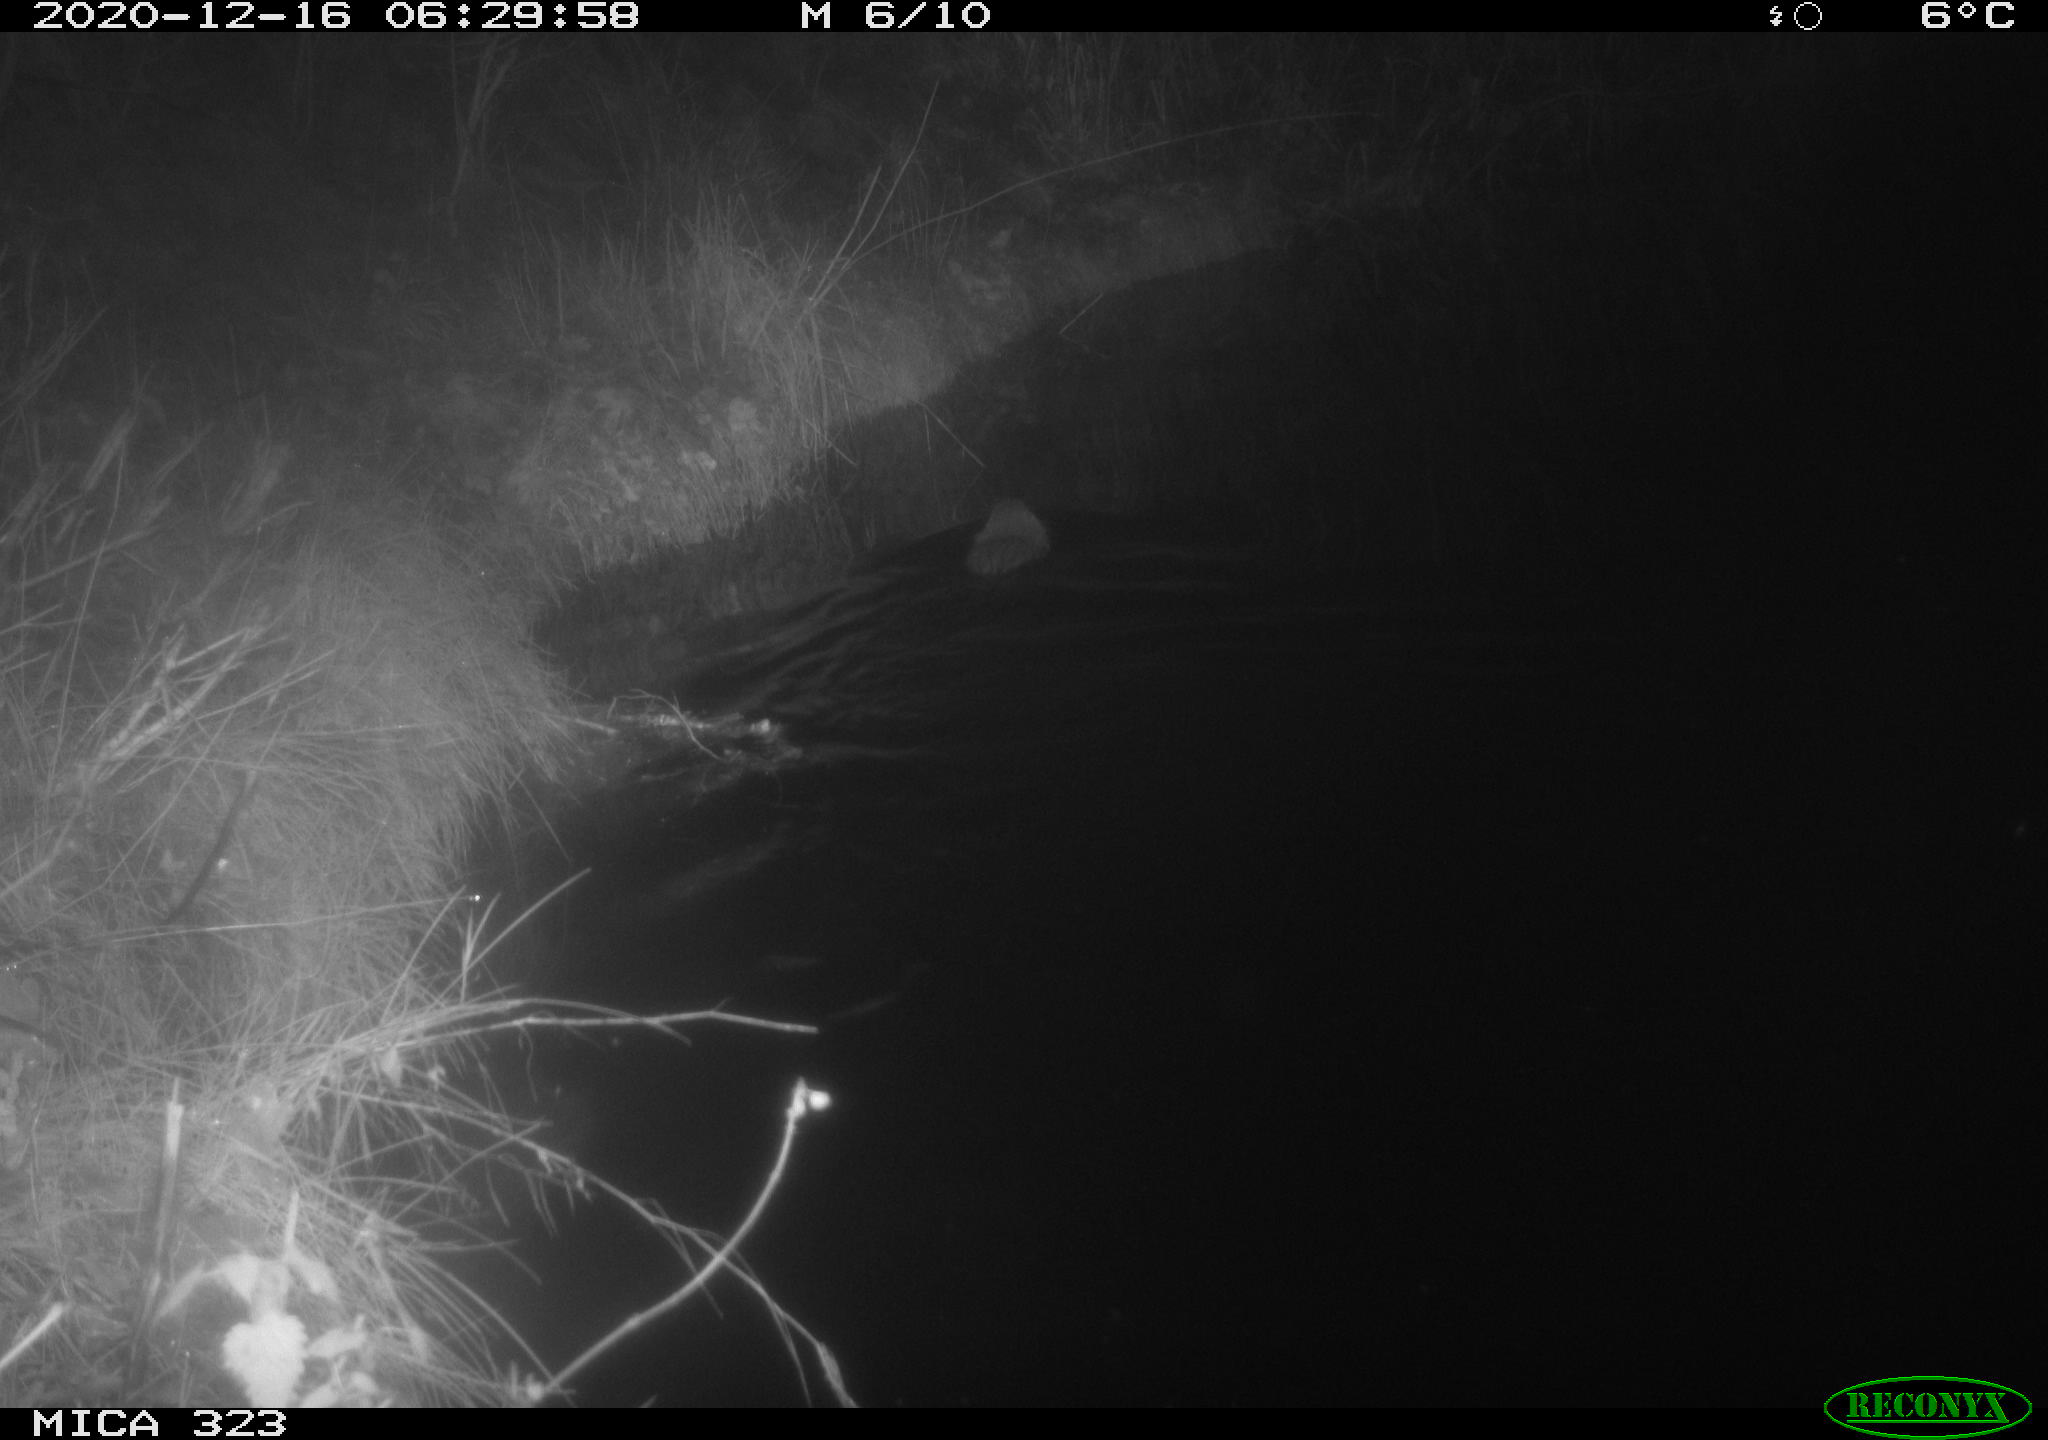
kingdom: Animalia
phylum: Chordata
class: Mammalia
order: Rodentia
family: Myocastoridae
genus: Myocastor
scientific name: Myocastor coypus
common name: Coypu
